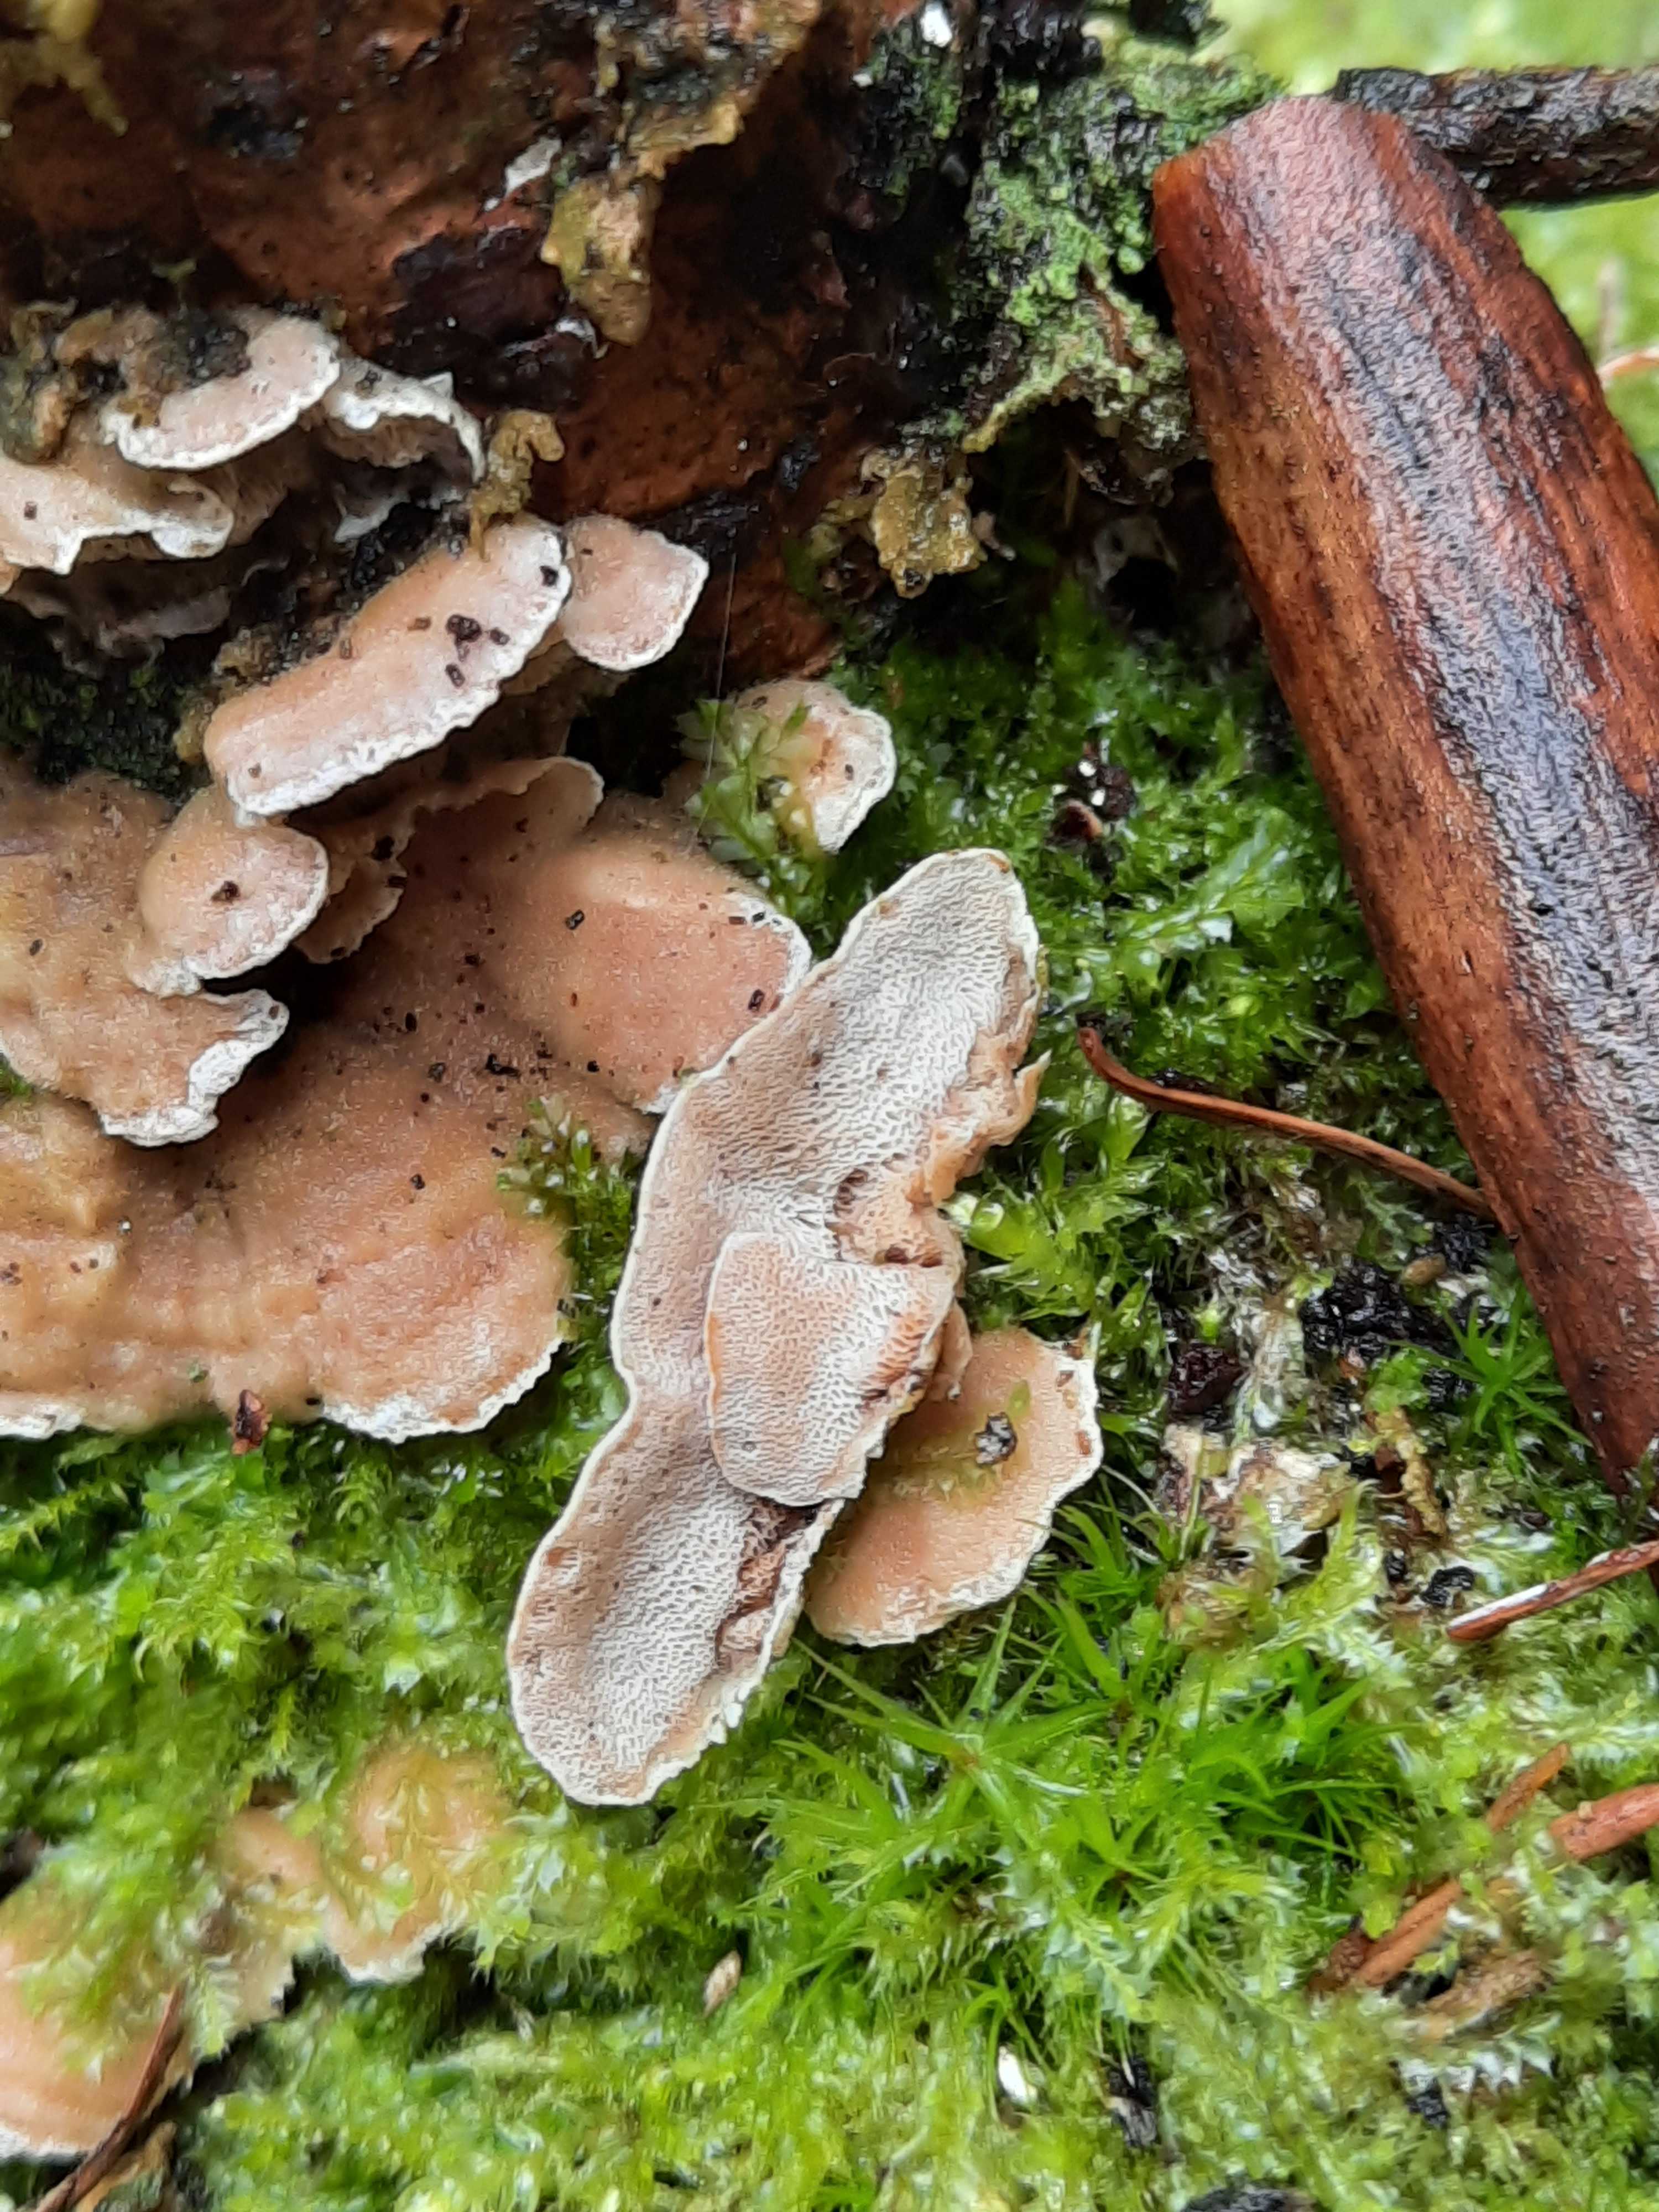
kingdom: Fungi
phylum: Basidiomycota
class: Agaricomycetes
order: Polyporales
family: Incrustoporiaceae
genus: Skeletocutis
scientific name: Skeletocutis carneogrisea
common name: rødgrå krystalporesvamp
